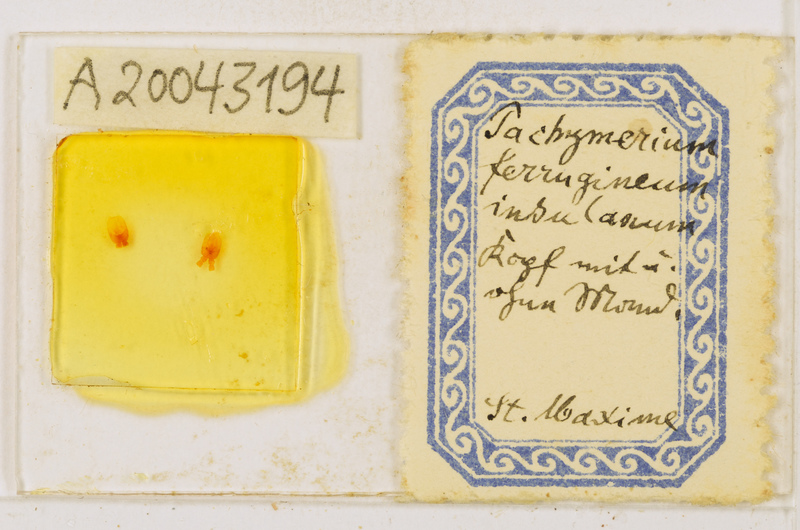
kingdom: Animalia
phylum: Arthropoda
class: Chilopoda
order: Geophilomorpha
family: Geophilidae
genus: Pachymerium
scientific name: Pachymerium ferrugineum
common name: Centipede
